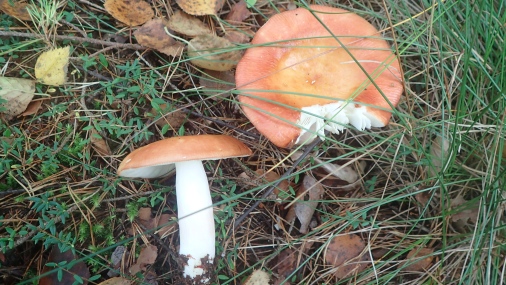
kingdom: Fungi
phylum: Basidiomycota
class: Agaricomycetes
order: Russulales
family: Russulaceae
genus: Russula
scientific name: Russula paludosa
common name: prægtig skørhat
